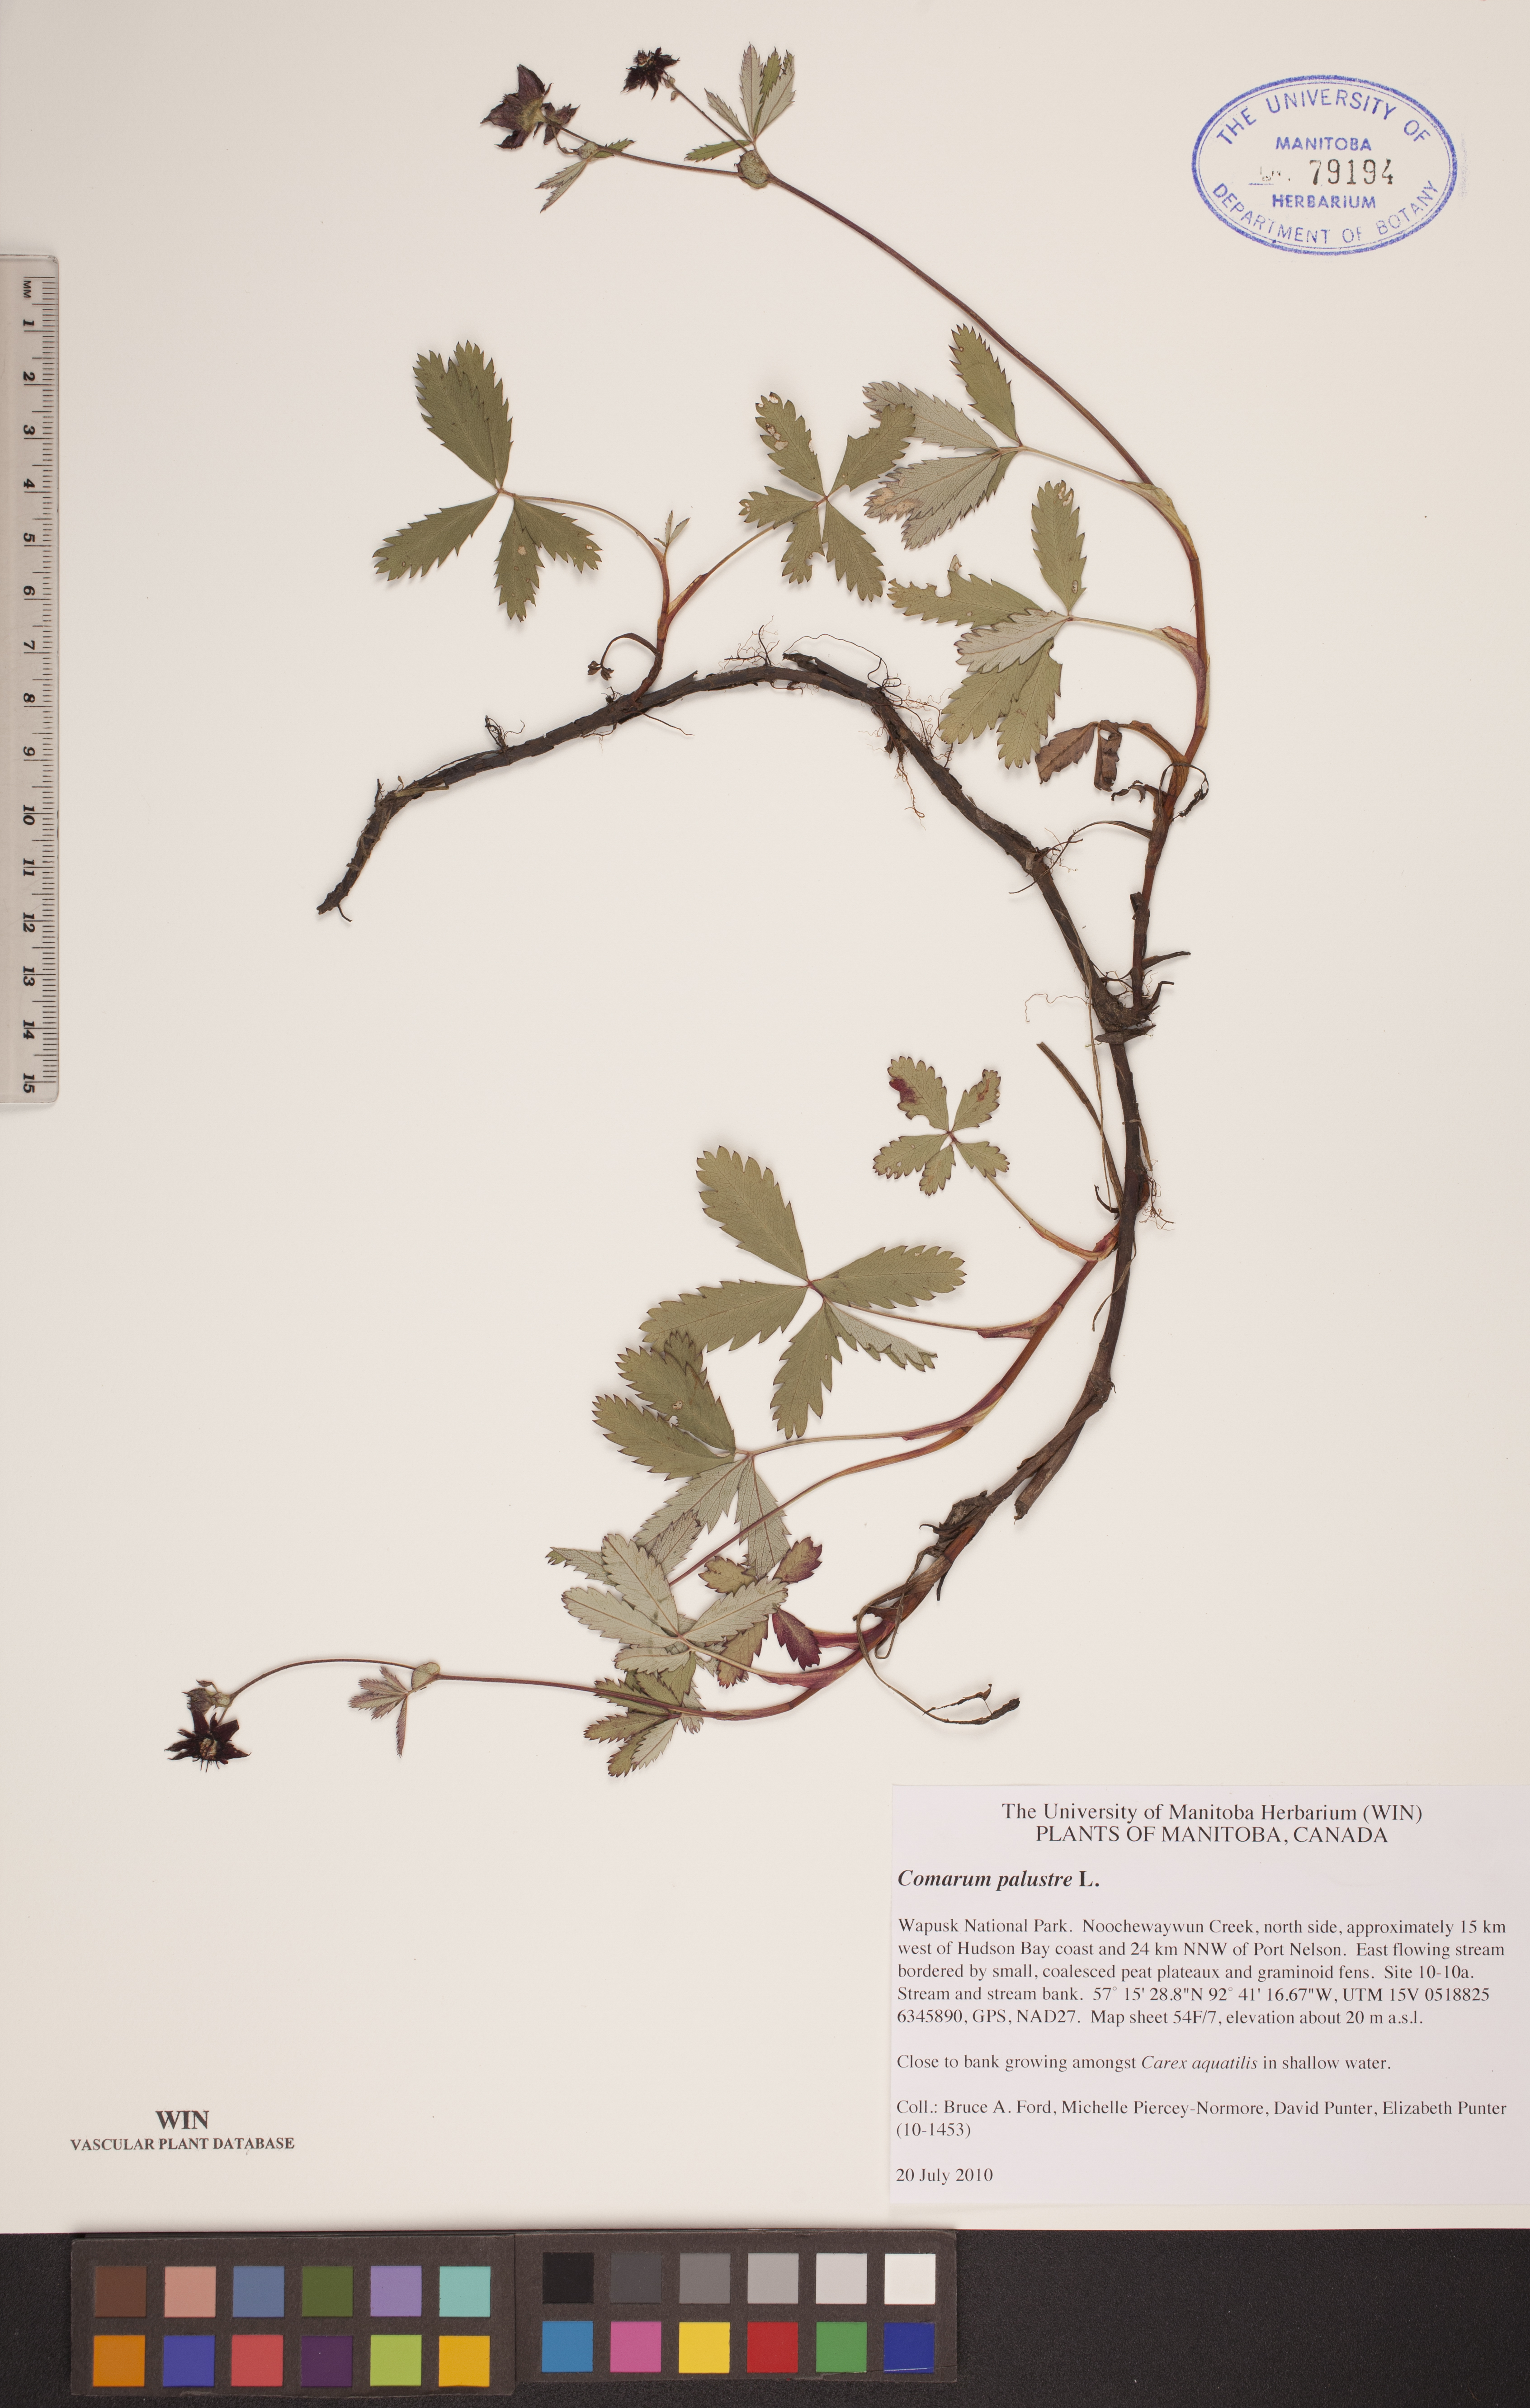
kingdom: Plantae
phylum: Tracheophyta
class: Magnoliopsida
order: Rosales
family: Rosaceae
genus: Comarum
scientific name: Comarum palustre
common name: Marsh cinquefoil
